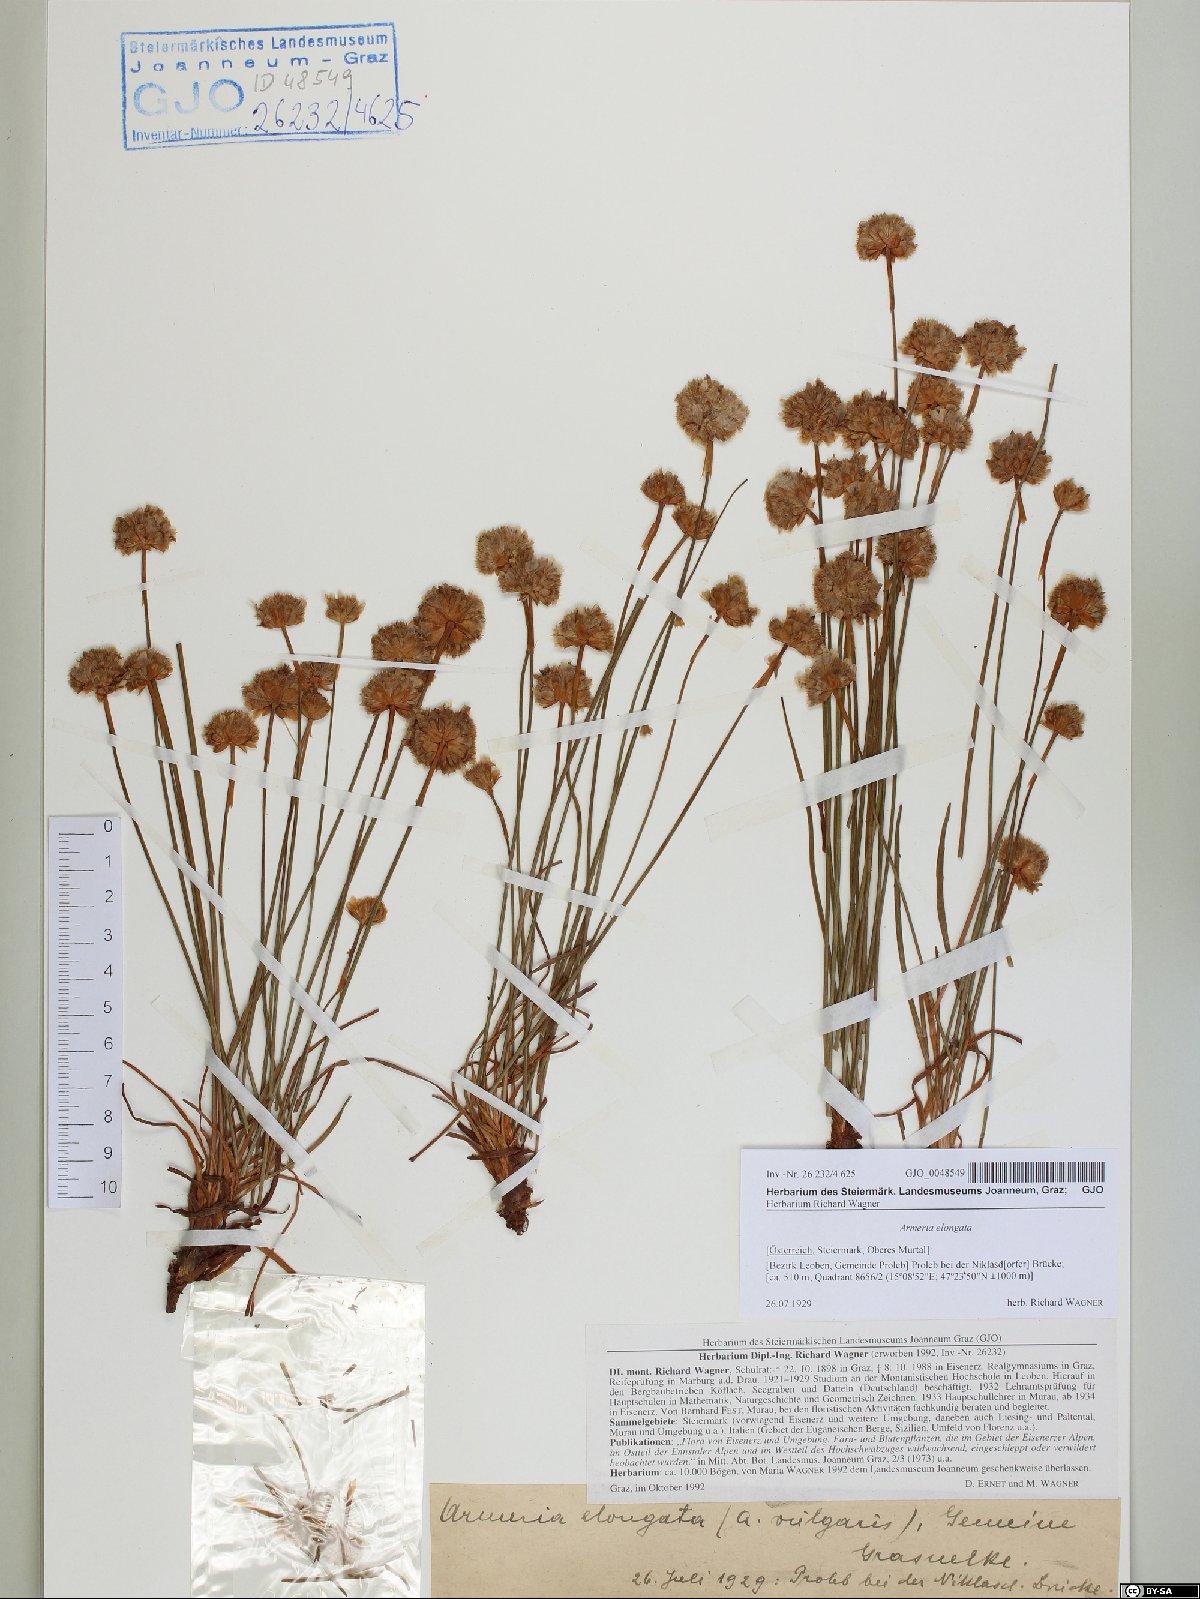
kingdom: Plantae
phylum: Tracheophyta
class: Magnoliopsida
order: Caryophyllales
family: Plumbaginaceae
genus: Armeria
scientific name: Armeria maritima
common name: Thrift
